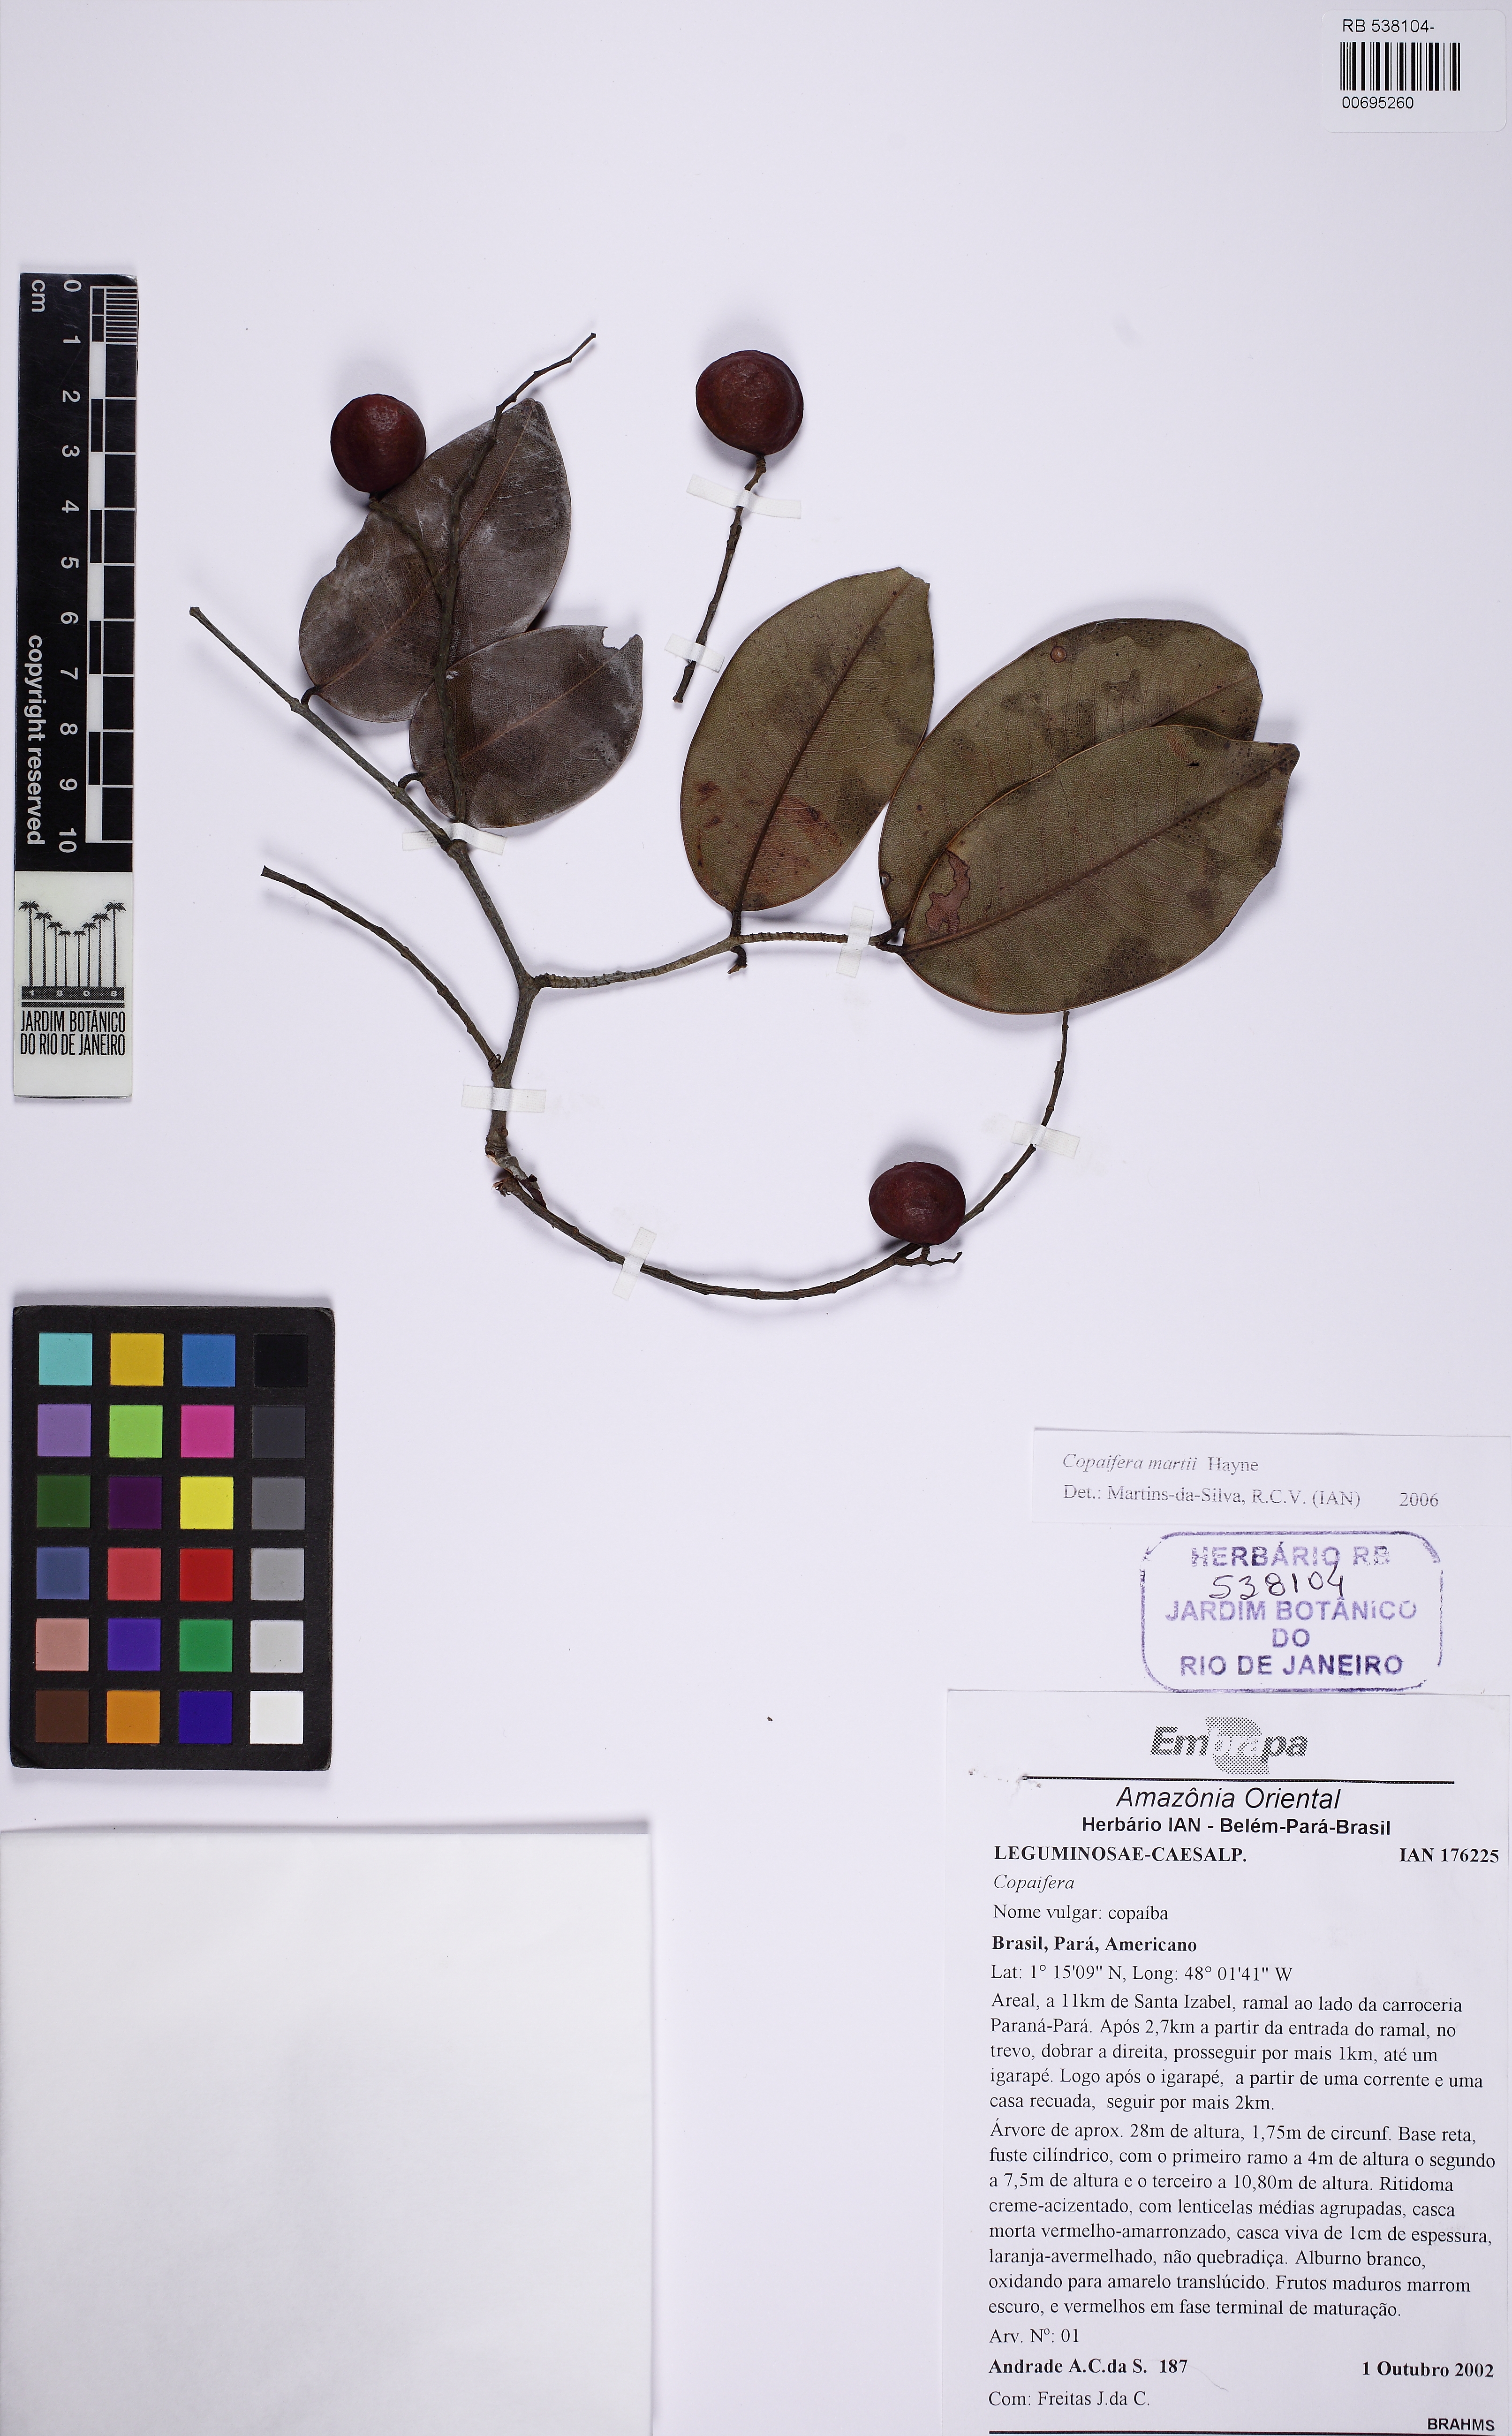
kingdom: Plantae
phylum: Tracheophyta
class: Magnoliopsida
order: Fabales
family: Fabaceae
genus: Copaifera
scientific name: Copaifera martii
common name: Copaiba
